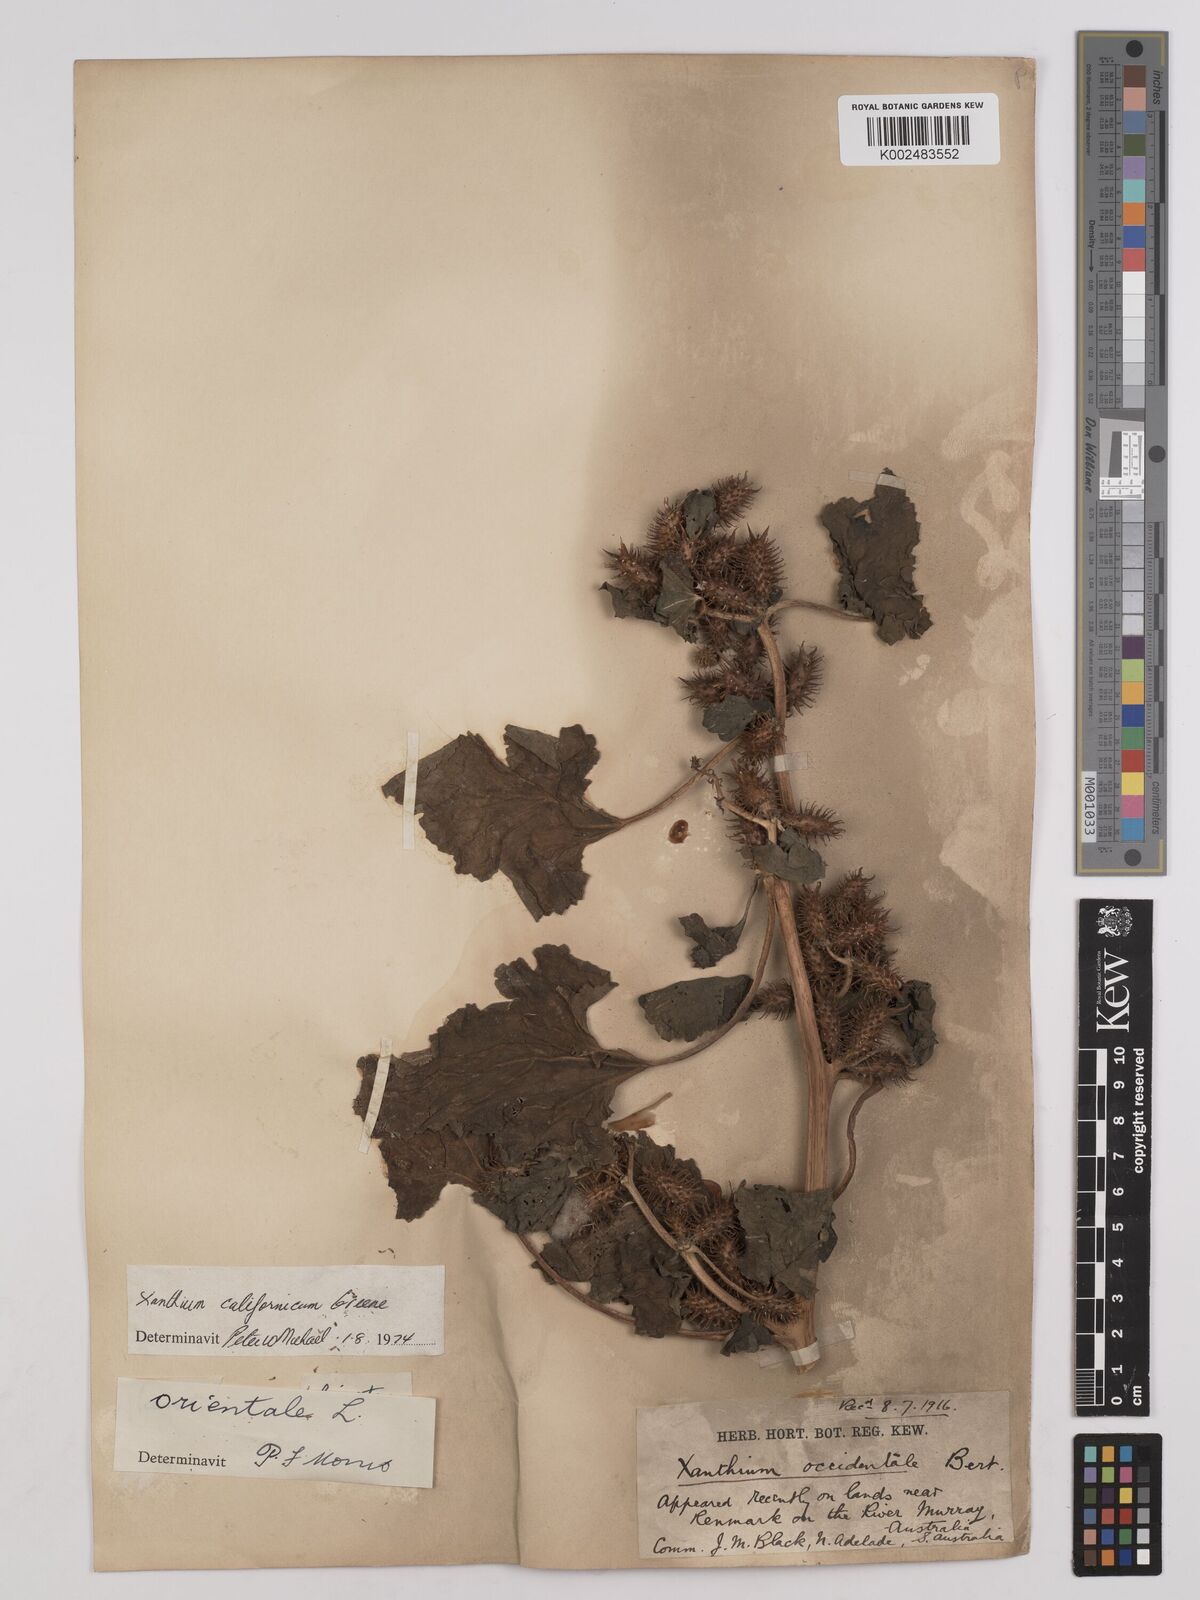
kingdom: Plantae
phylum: Tracheophyta
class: Magnoliopsida
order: Asterales
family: Asteraceae
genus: Xanthium
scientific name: Xanthium occidentale
